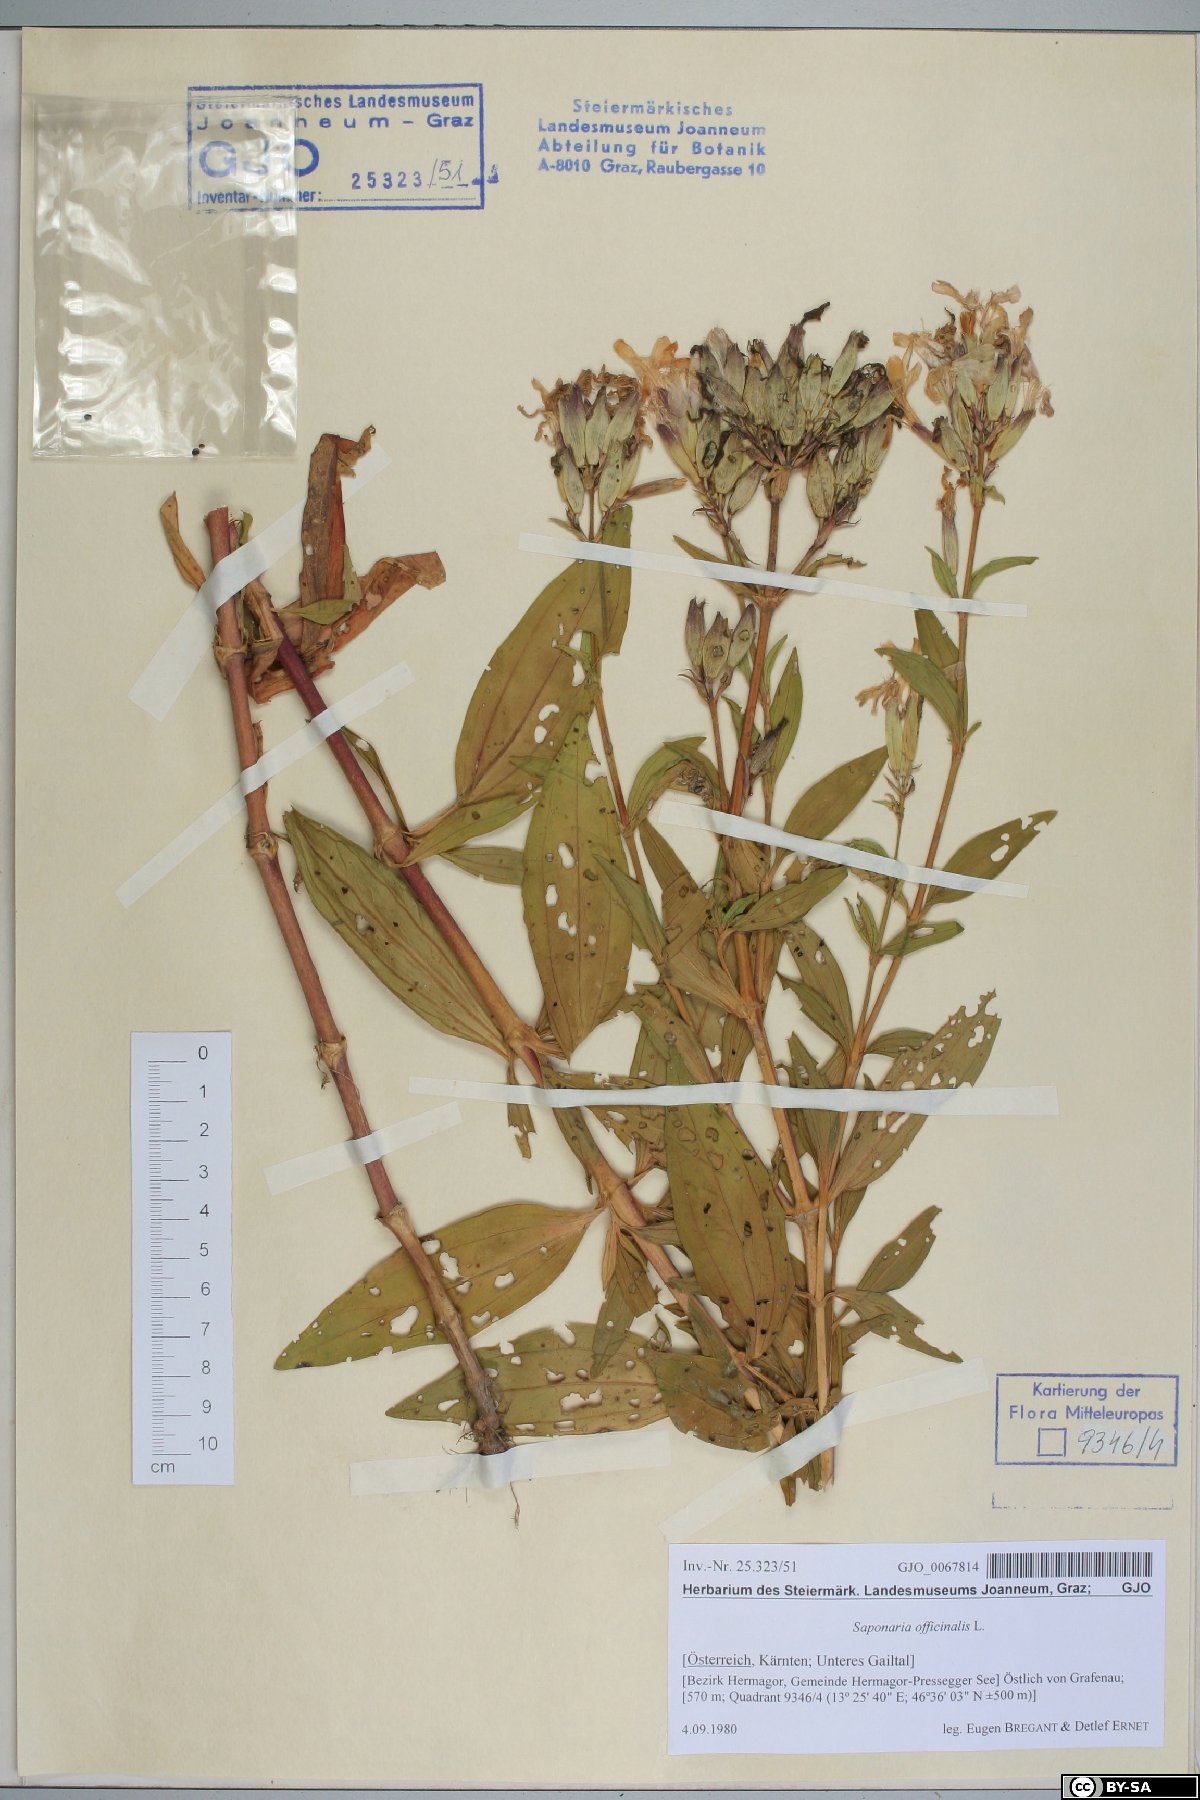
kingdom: Plantae
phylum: Tracheophyta
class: Magnoliopsida
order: Caryophyllales
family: Caryophyllaceae
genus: Saponaria
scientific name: Saponaria officinalis
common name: Soapwort
